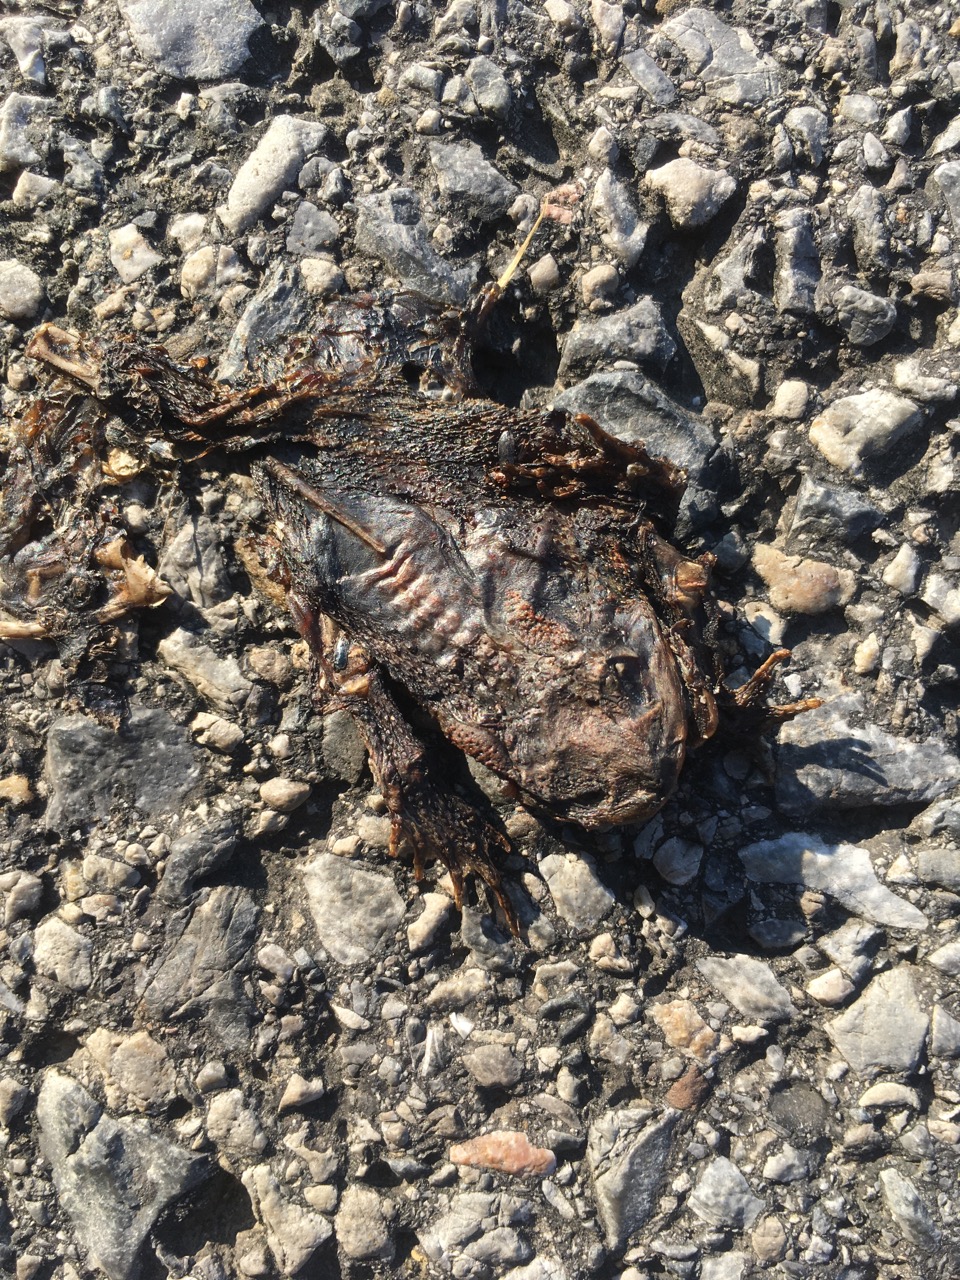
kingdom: Animalia
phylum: Chordata
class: Amphibia
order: Anura
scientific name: Anura
